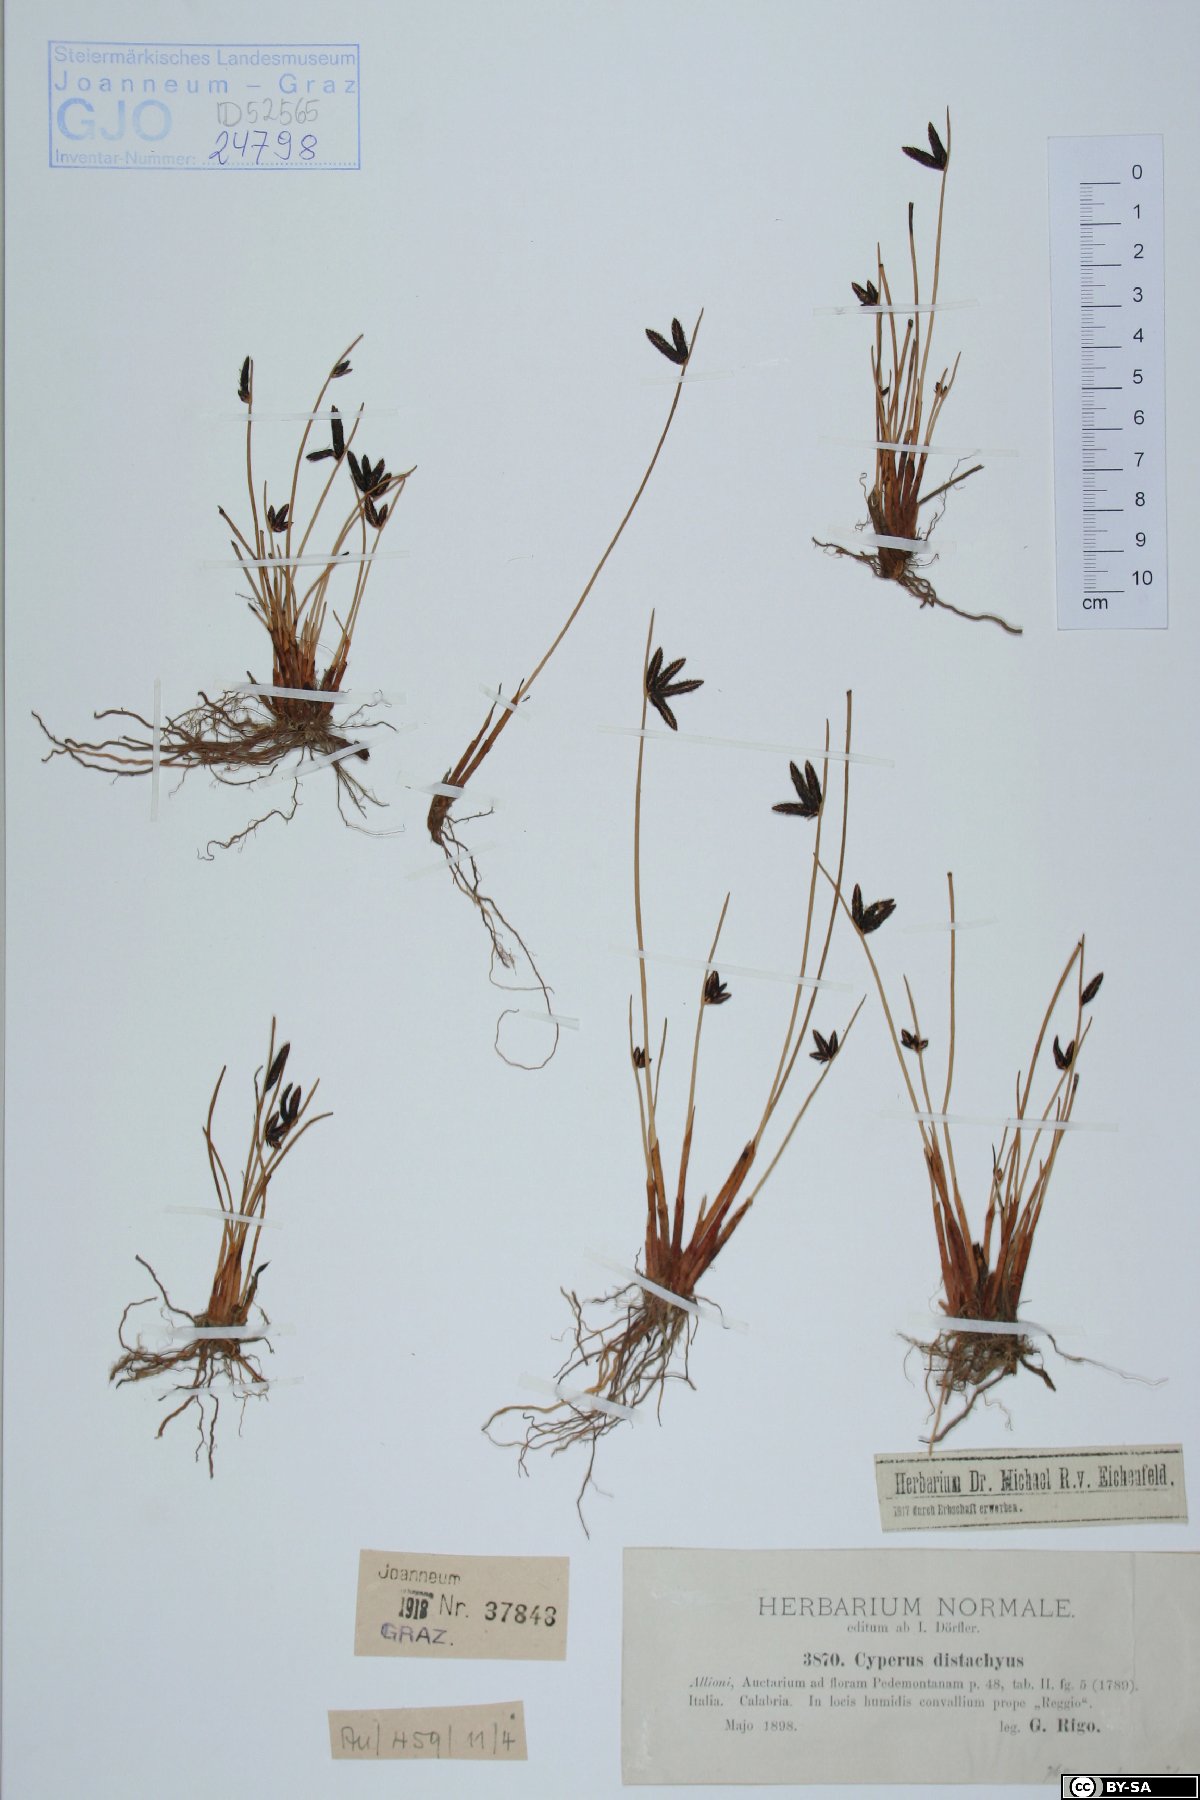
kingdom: Plantae
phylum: Tracheophyta
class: Liliopsida
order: Poales
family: Cyperaceae
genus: Cyperus
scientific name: Cyperus laevigatus
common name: Smooth flat sedge
